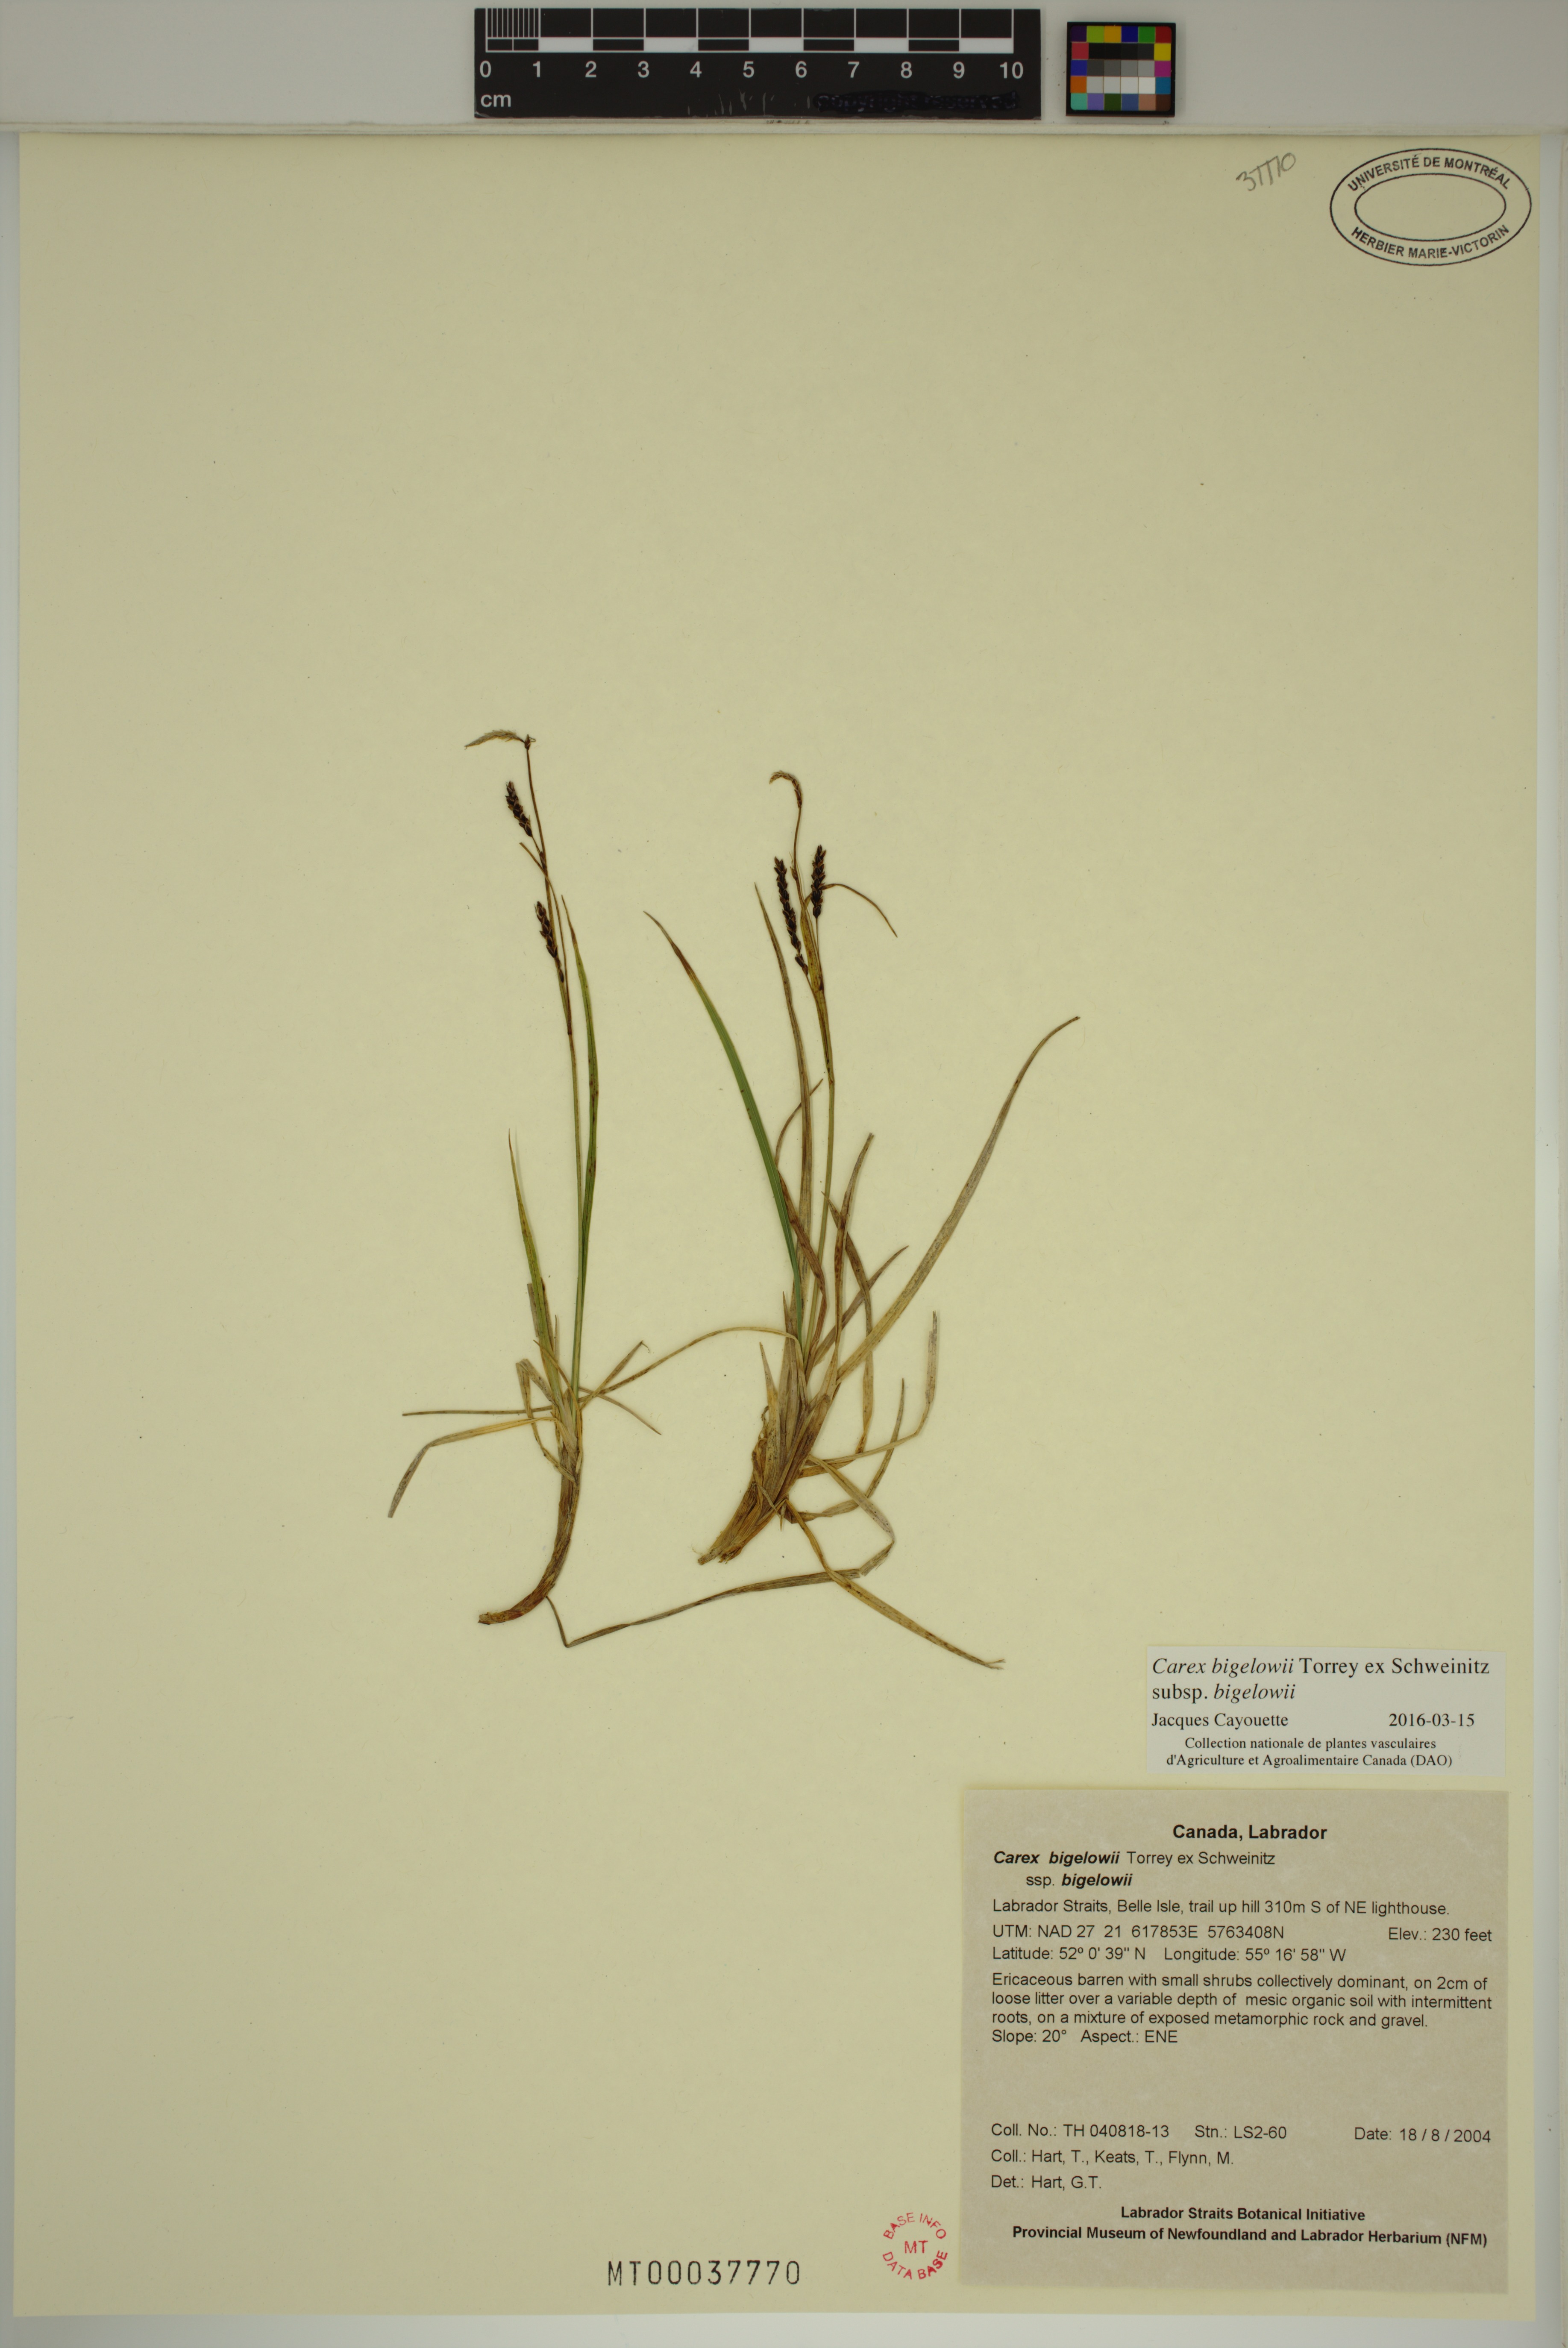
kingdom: Plantae
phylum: Tracheophyta
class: Liliopsida
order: Poales
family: Cyperaceae
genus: Carex
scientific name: Carex bigelowii
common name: Stiff sedge
